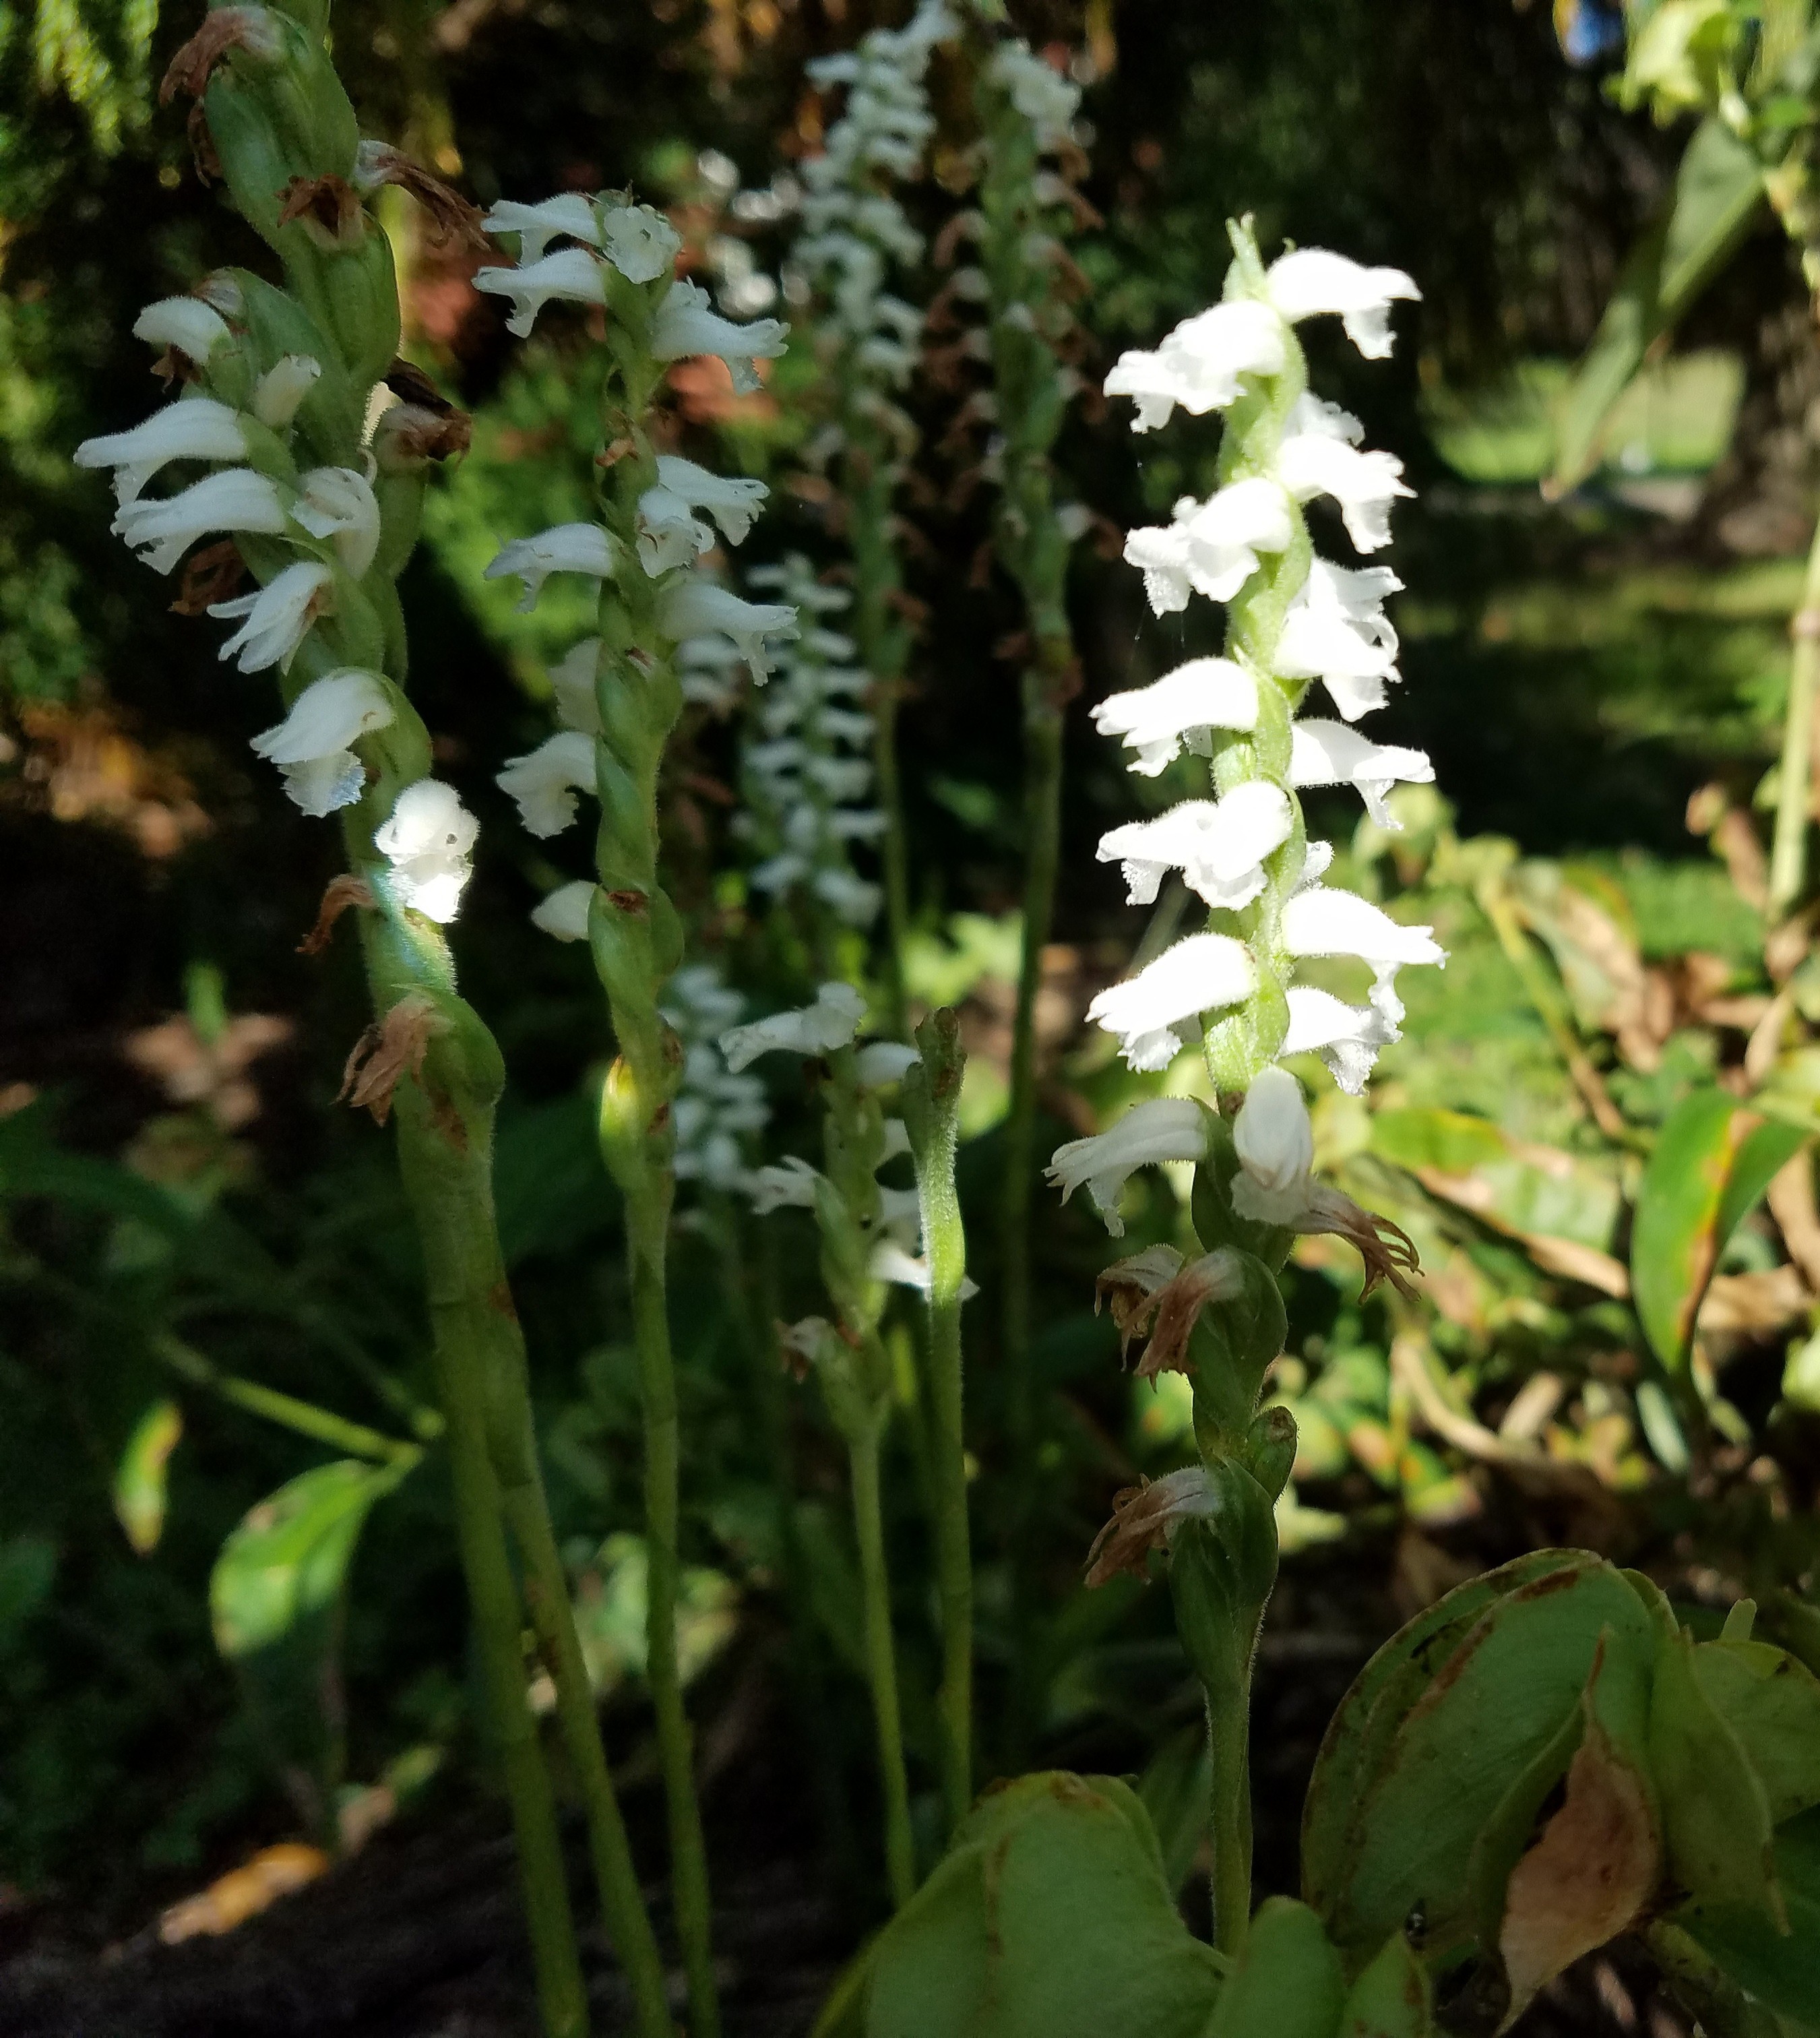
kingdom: Plantae
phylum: Tracheophyta
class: Liliopsida
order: Asparagales
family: Orchidaceae
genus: Spiranthes
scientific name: Spiranthes cernua
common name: Lady's tresses
